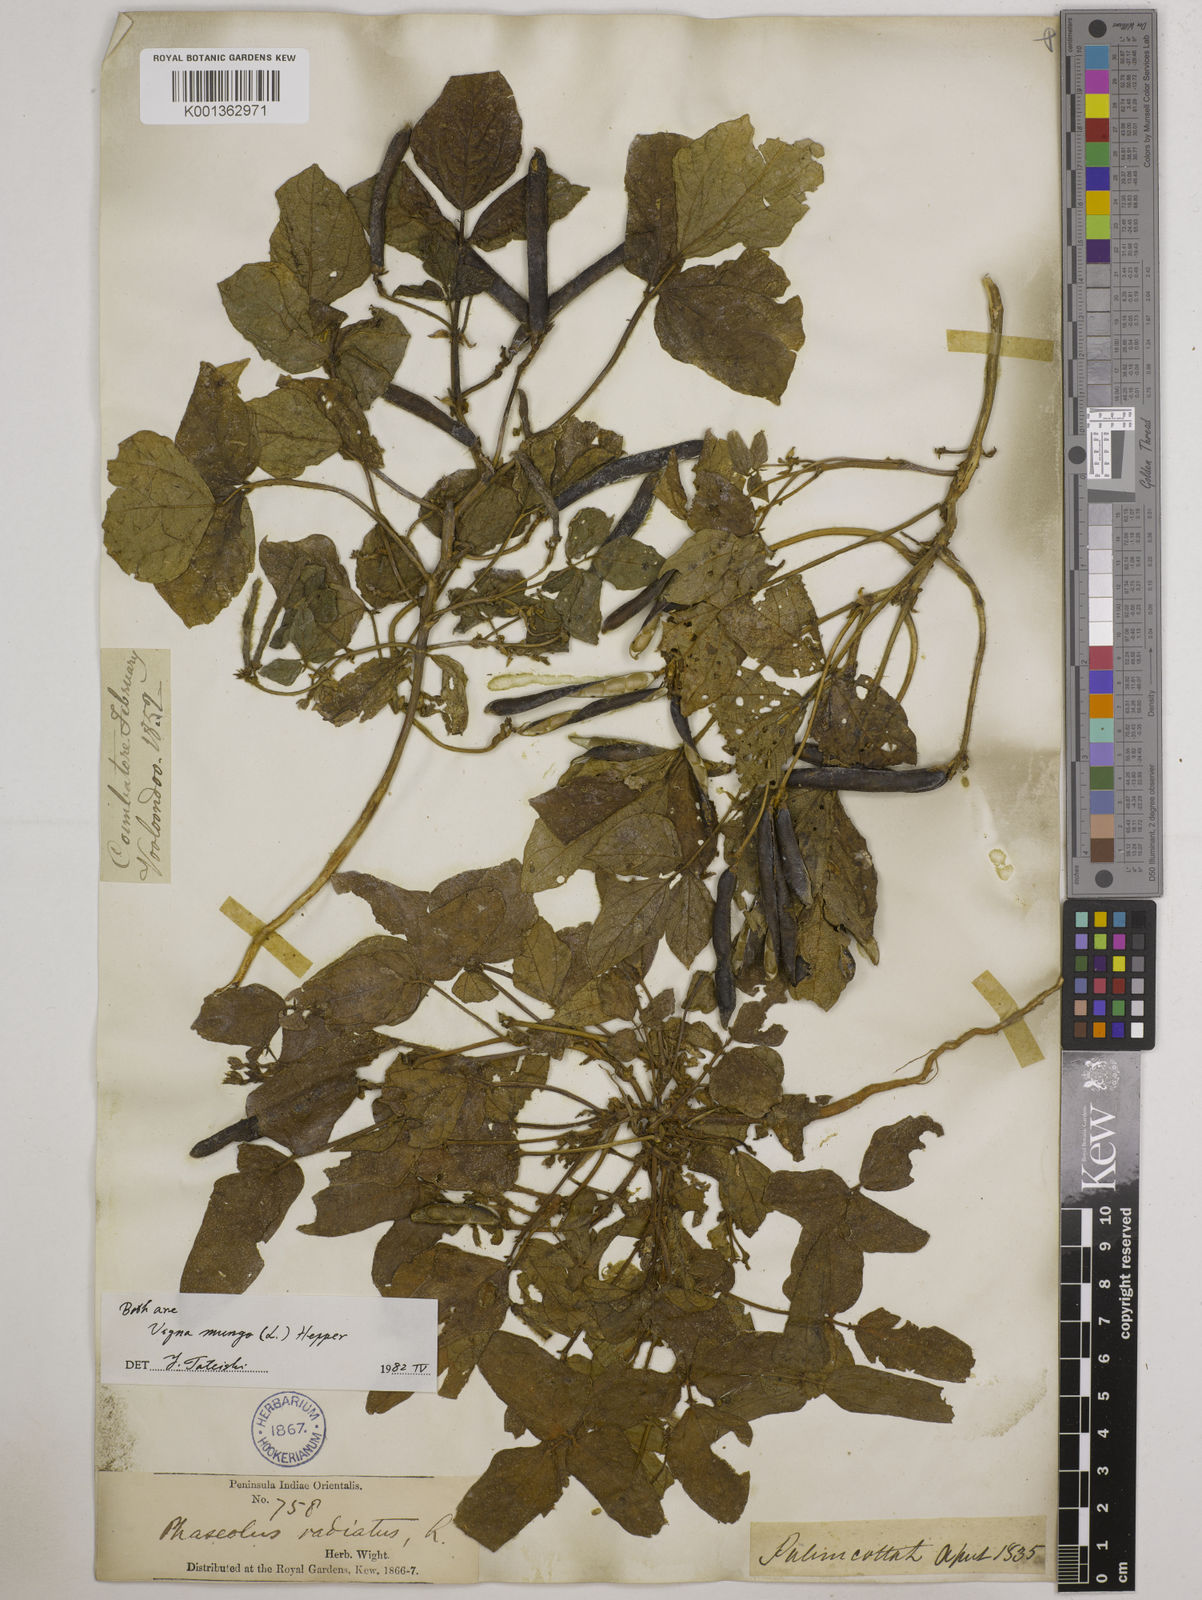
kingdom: Plantae
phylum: Tracheophyta
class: Magnoliopsida
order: Fabales
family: Fabaceae
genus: Vigna
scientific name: Vigna mungo
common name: Black gram
